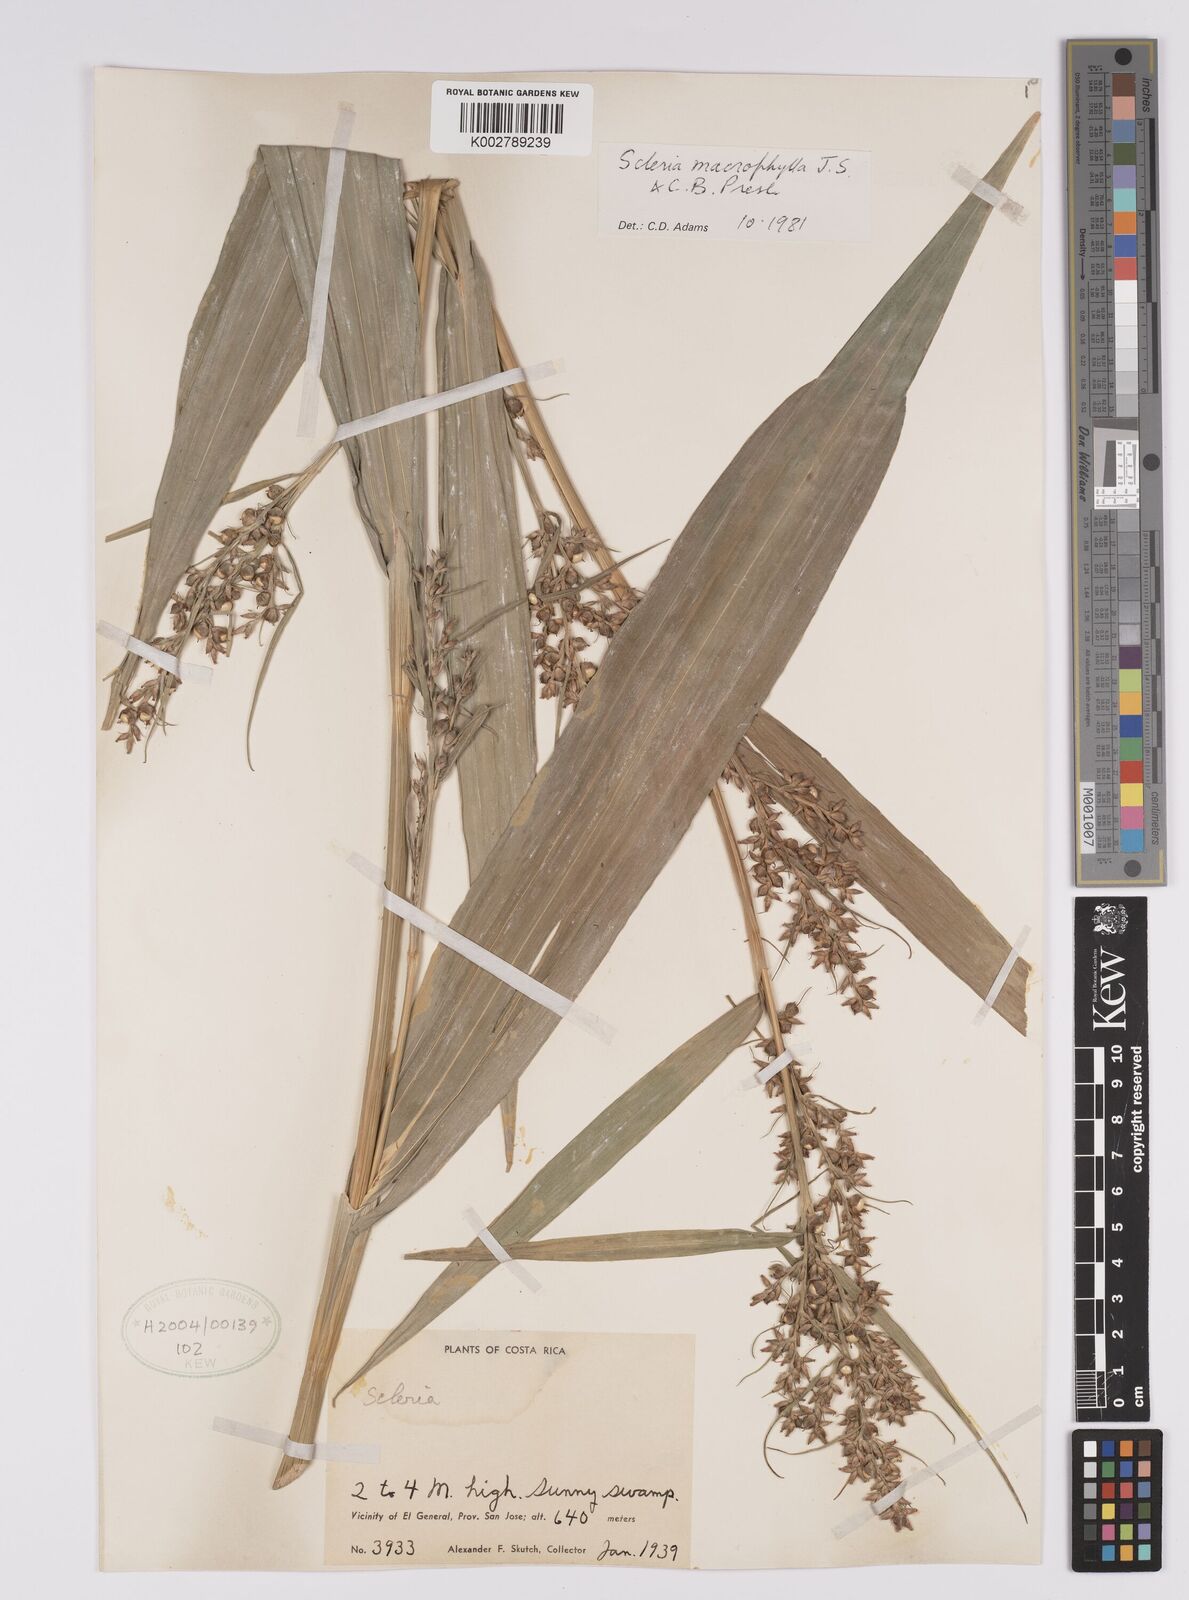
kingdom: Plantae
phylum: Tracheophyta
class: Liliopsida
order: Poales
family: Cyperaceae
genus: Scleria
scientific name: Scleria macrophylla
